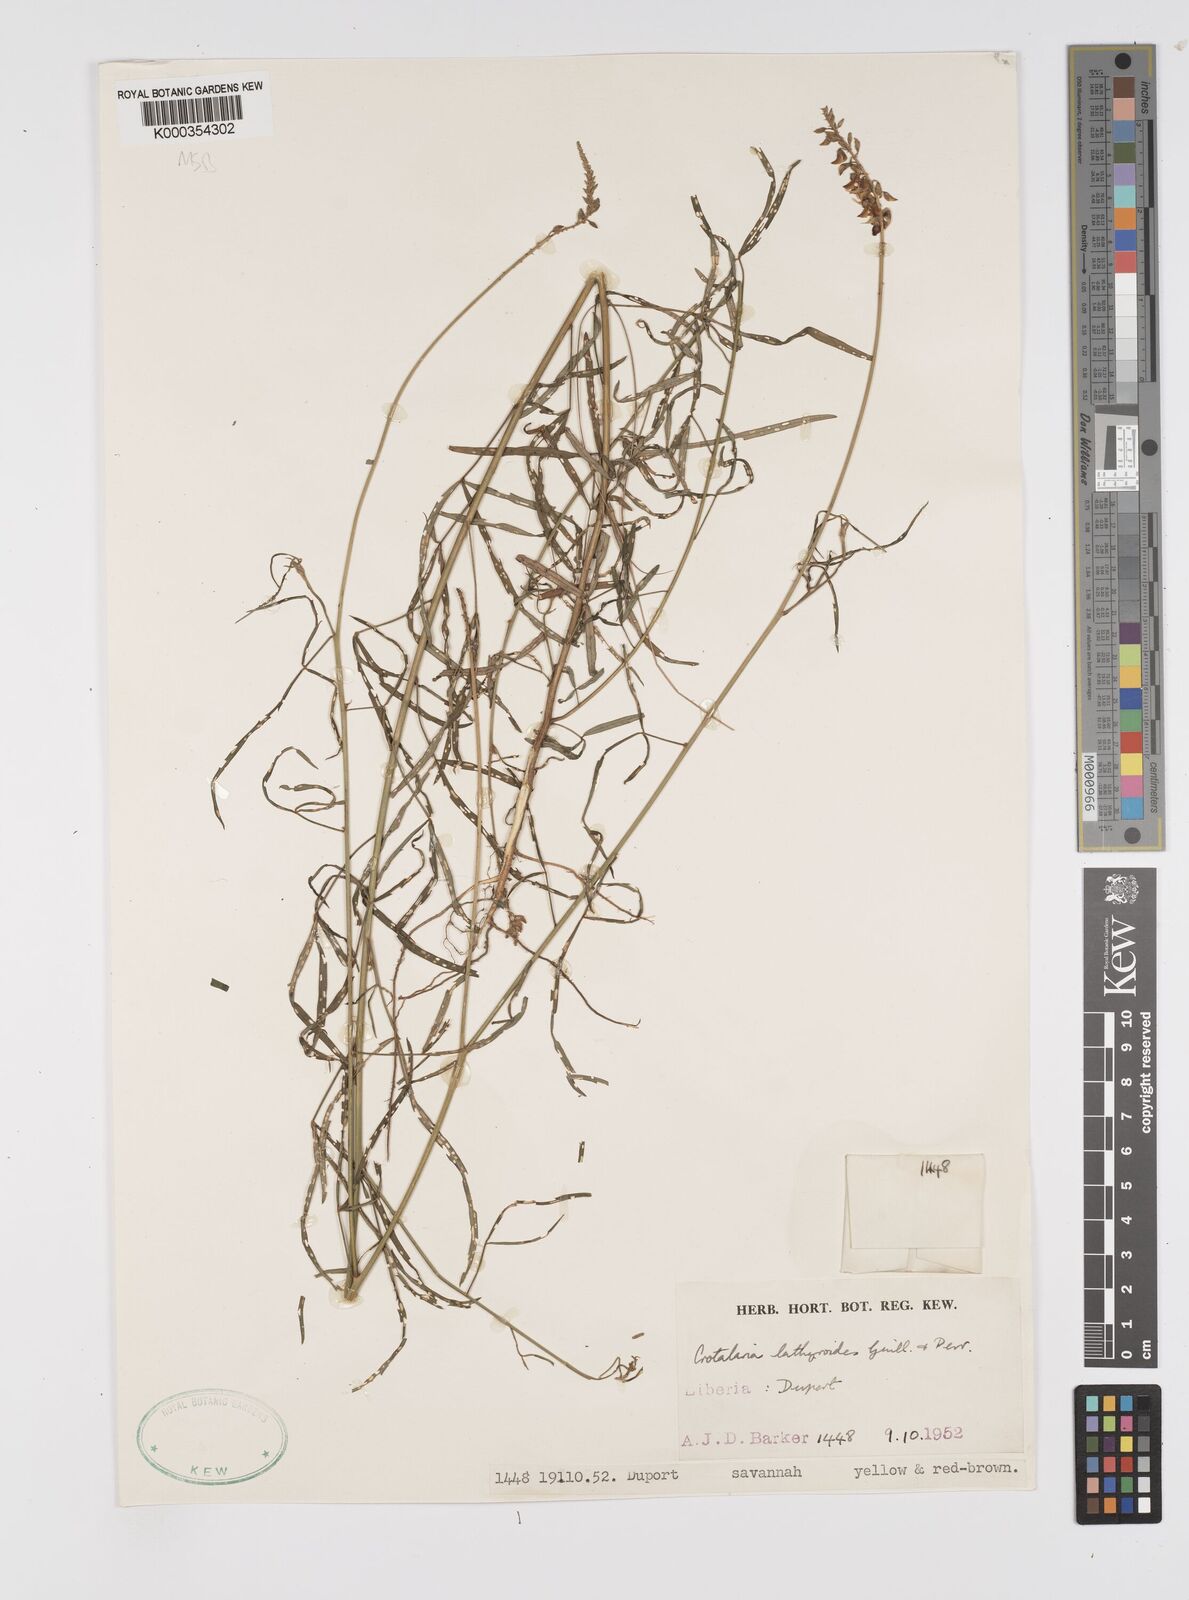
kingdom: Plantae
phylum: Tracheophyta
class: Magnoliopsida
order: Fabales
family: Fabaceae
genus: Crotalaria
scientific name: Crotalaria lathyroides
